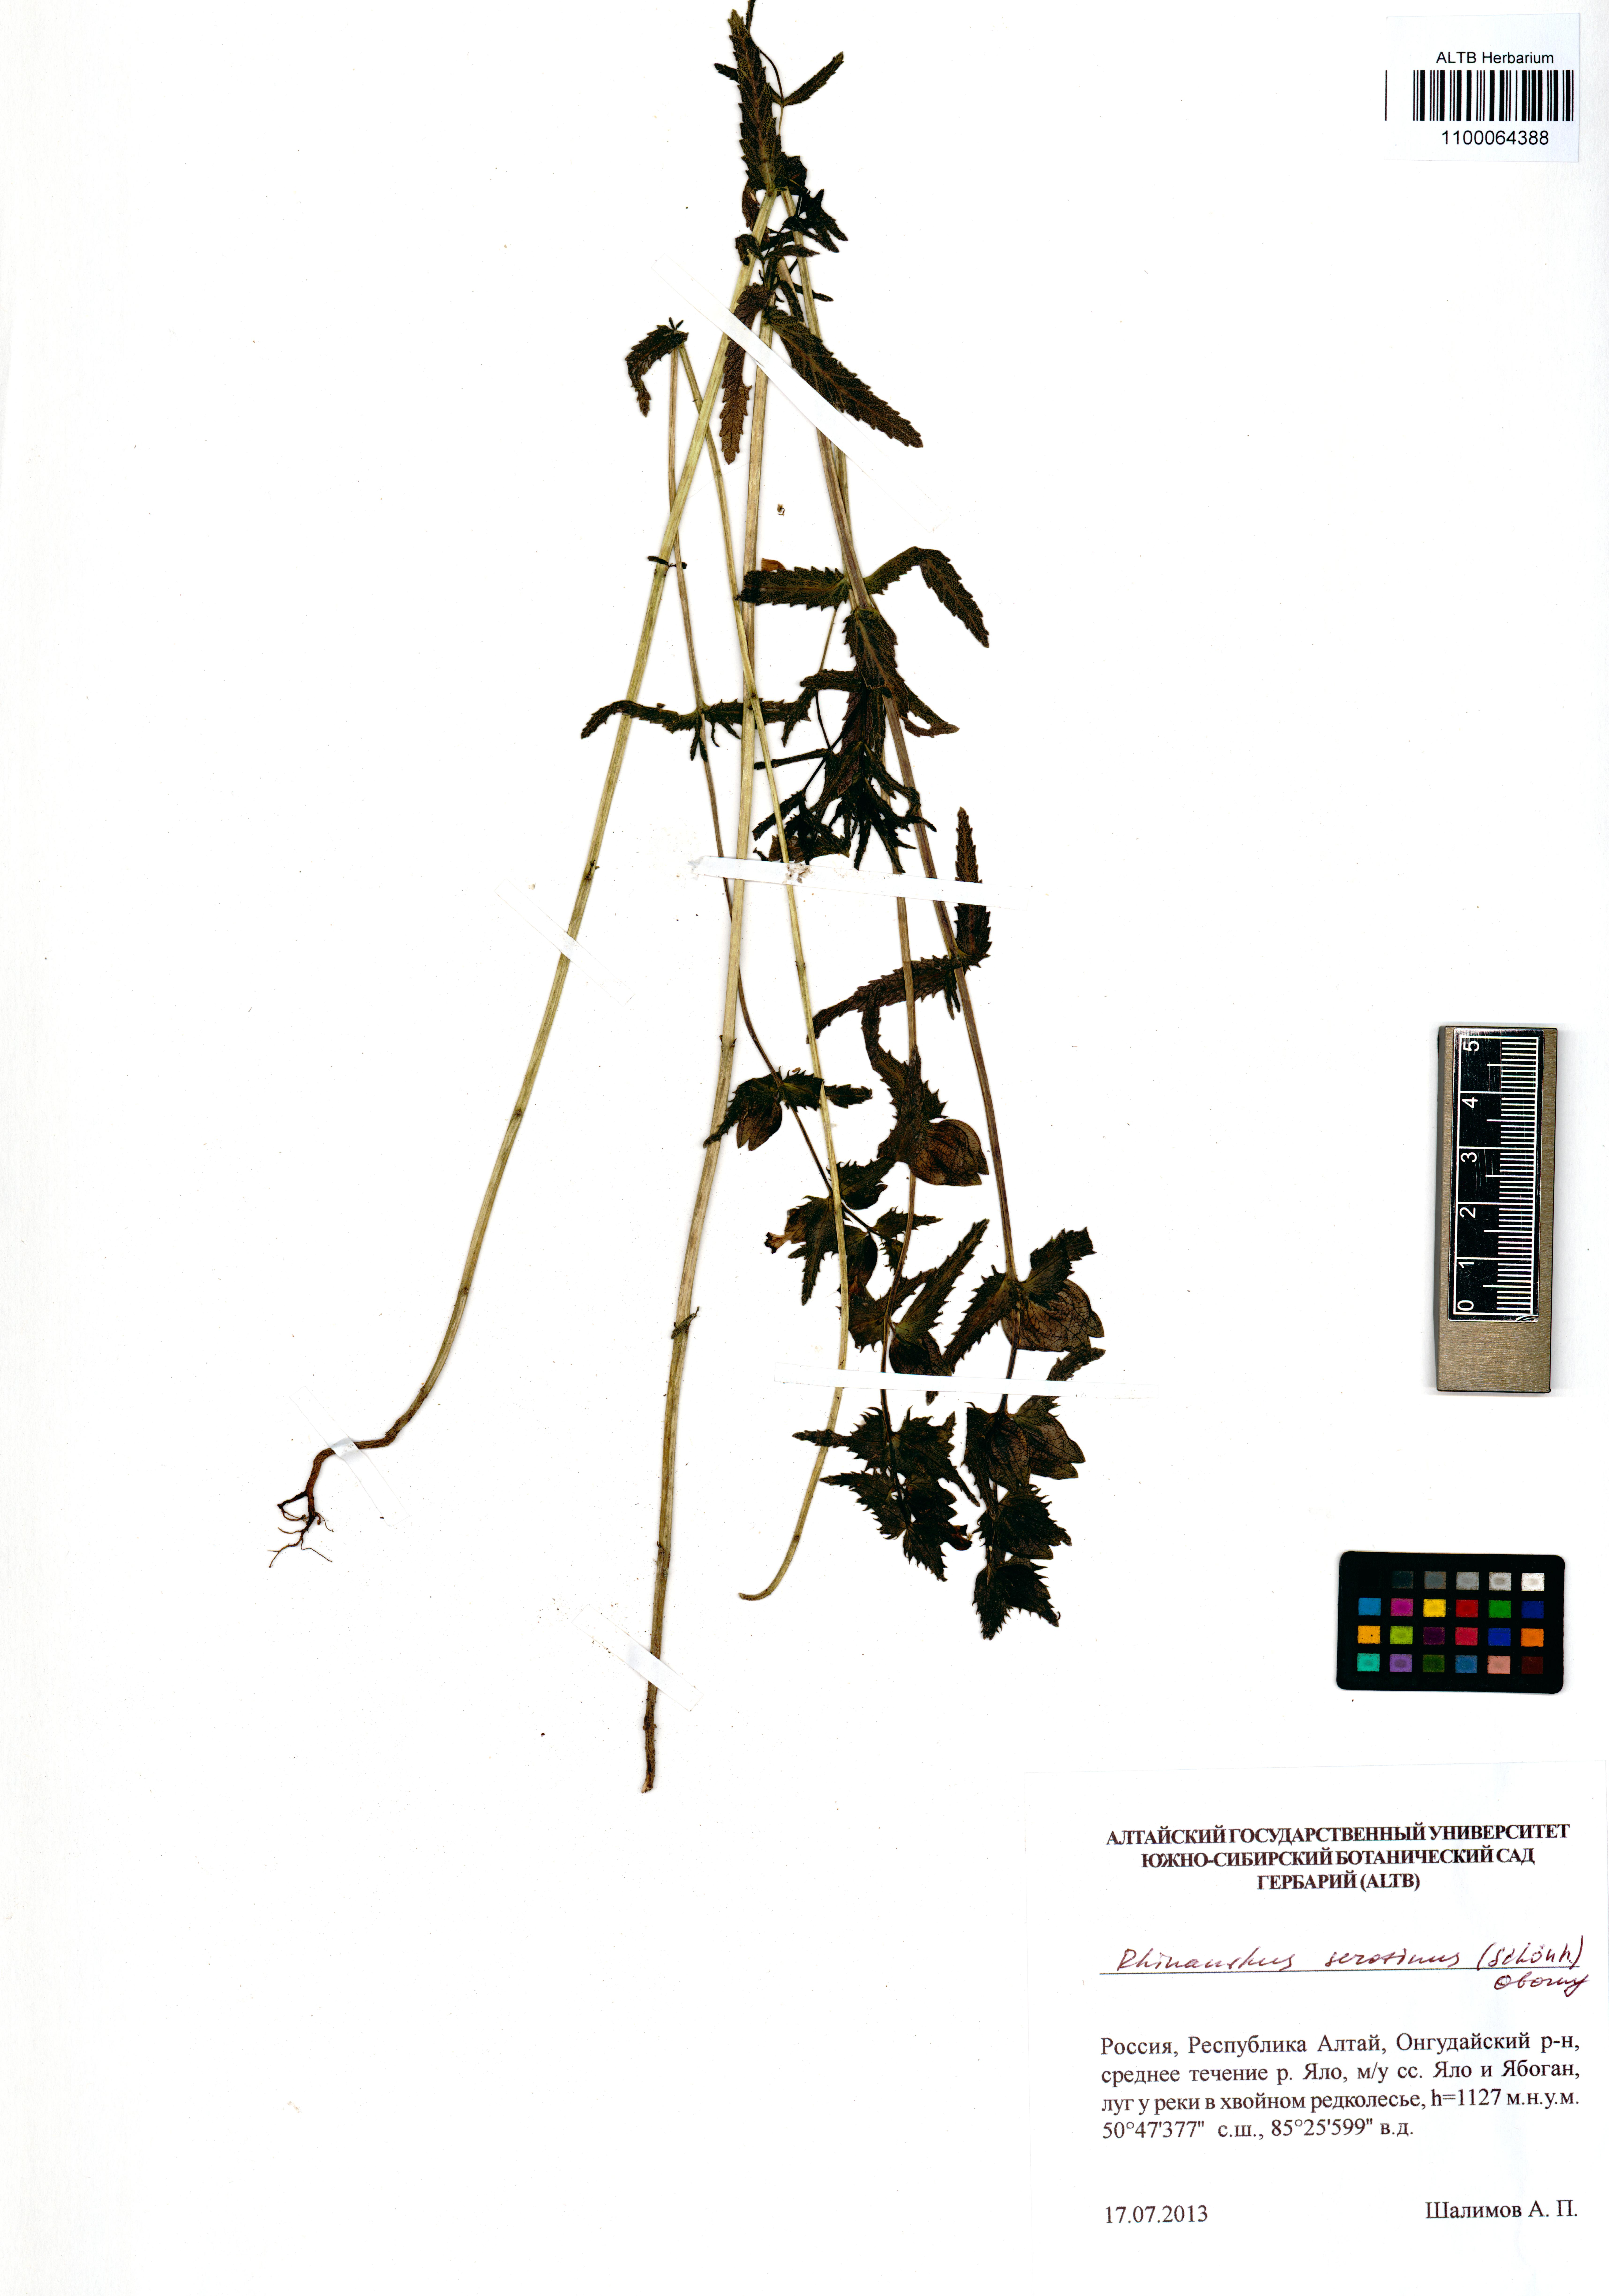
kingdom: Plantae
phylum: Tracheophyta
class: Magnoliopsida
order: Lamiales
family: Orobanchaceae
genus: Rhinanthus
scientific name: Rhinanthus serotinus
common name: Late-flowering yellow rattle
